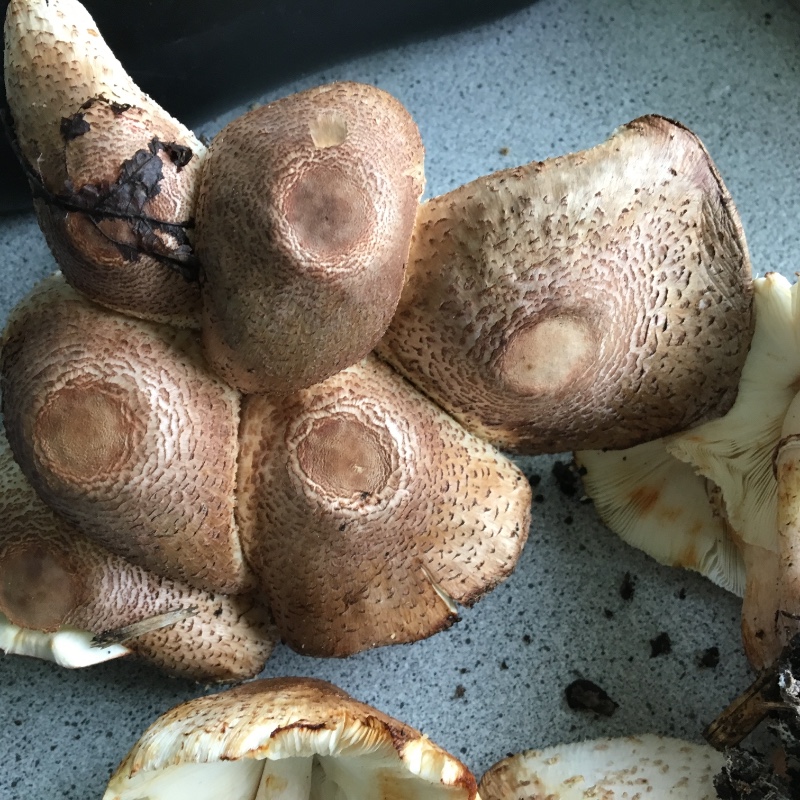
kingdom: Fungi
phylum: Basidiomycota
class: Agaricomycetes
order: Agaricales
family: Agaricaceae
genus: Leucoagaricus
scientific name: Leucoagaricus americanus
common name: stor silkehat
